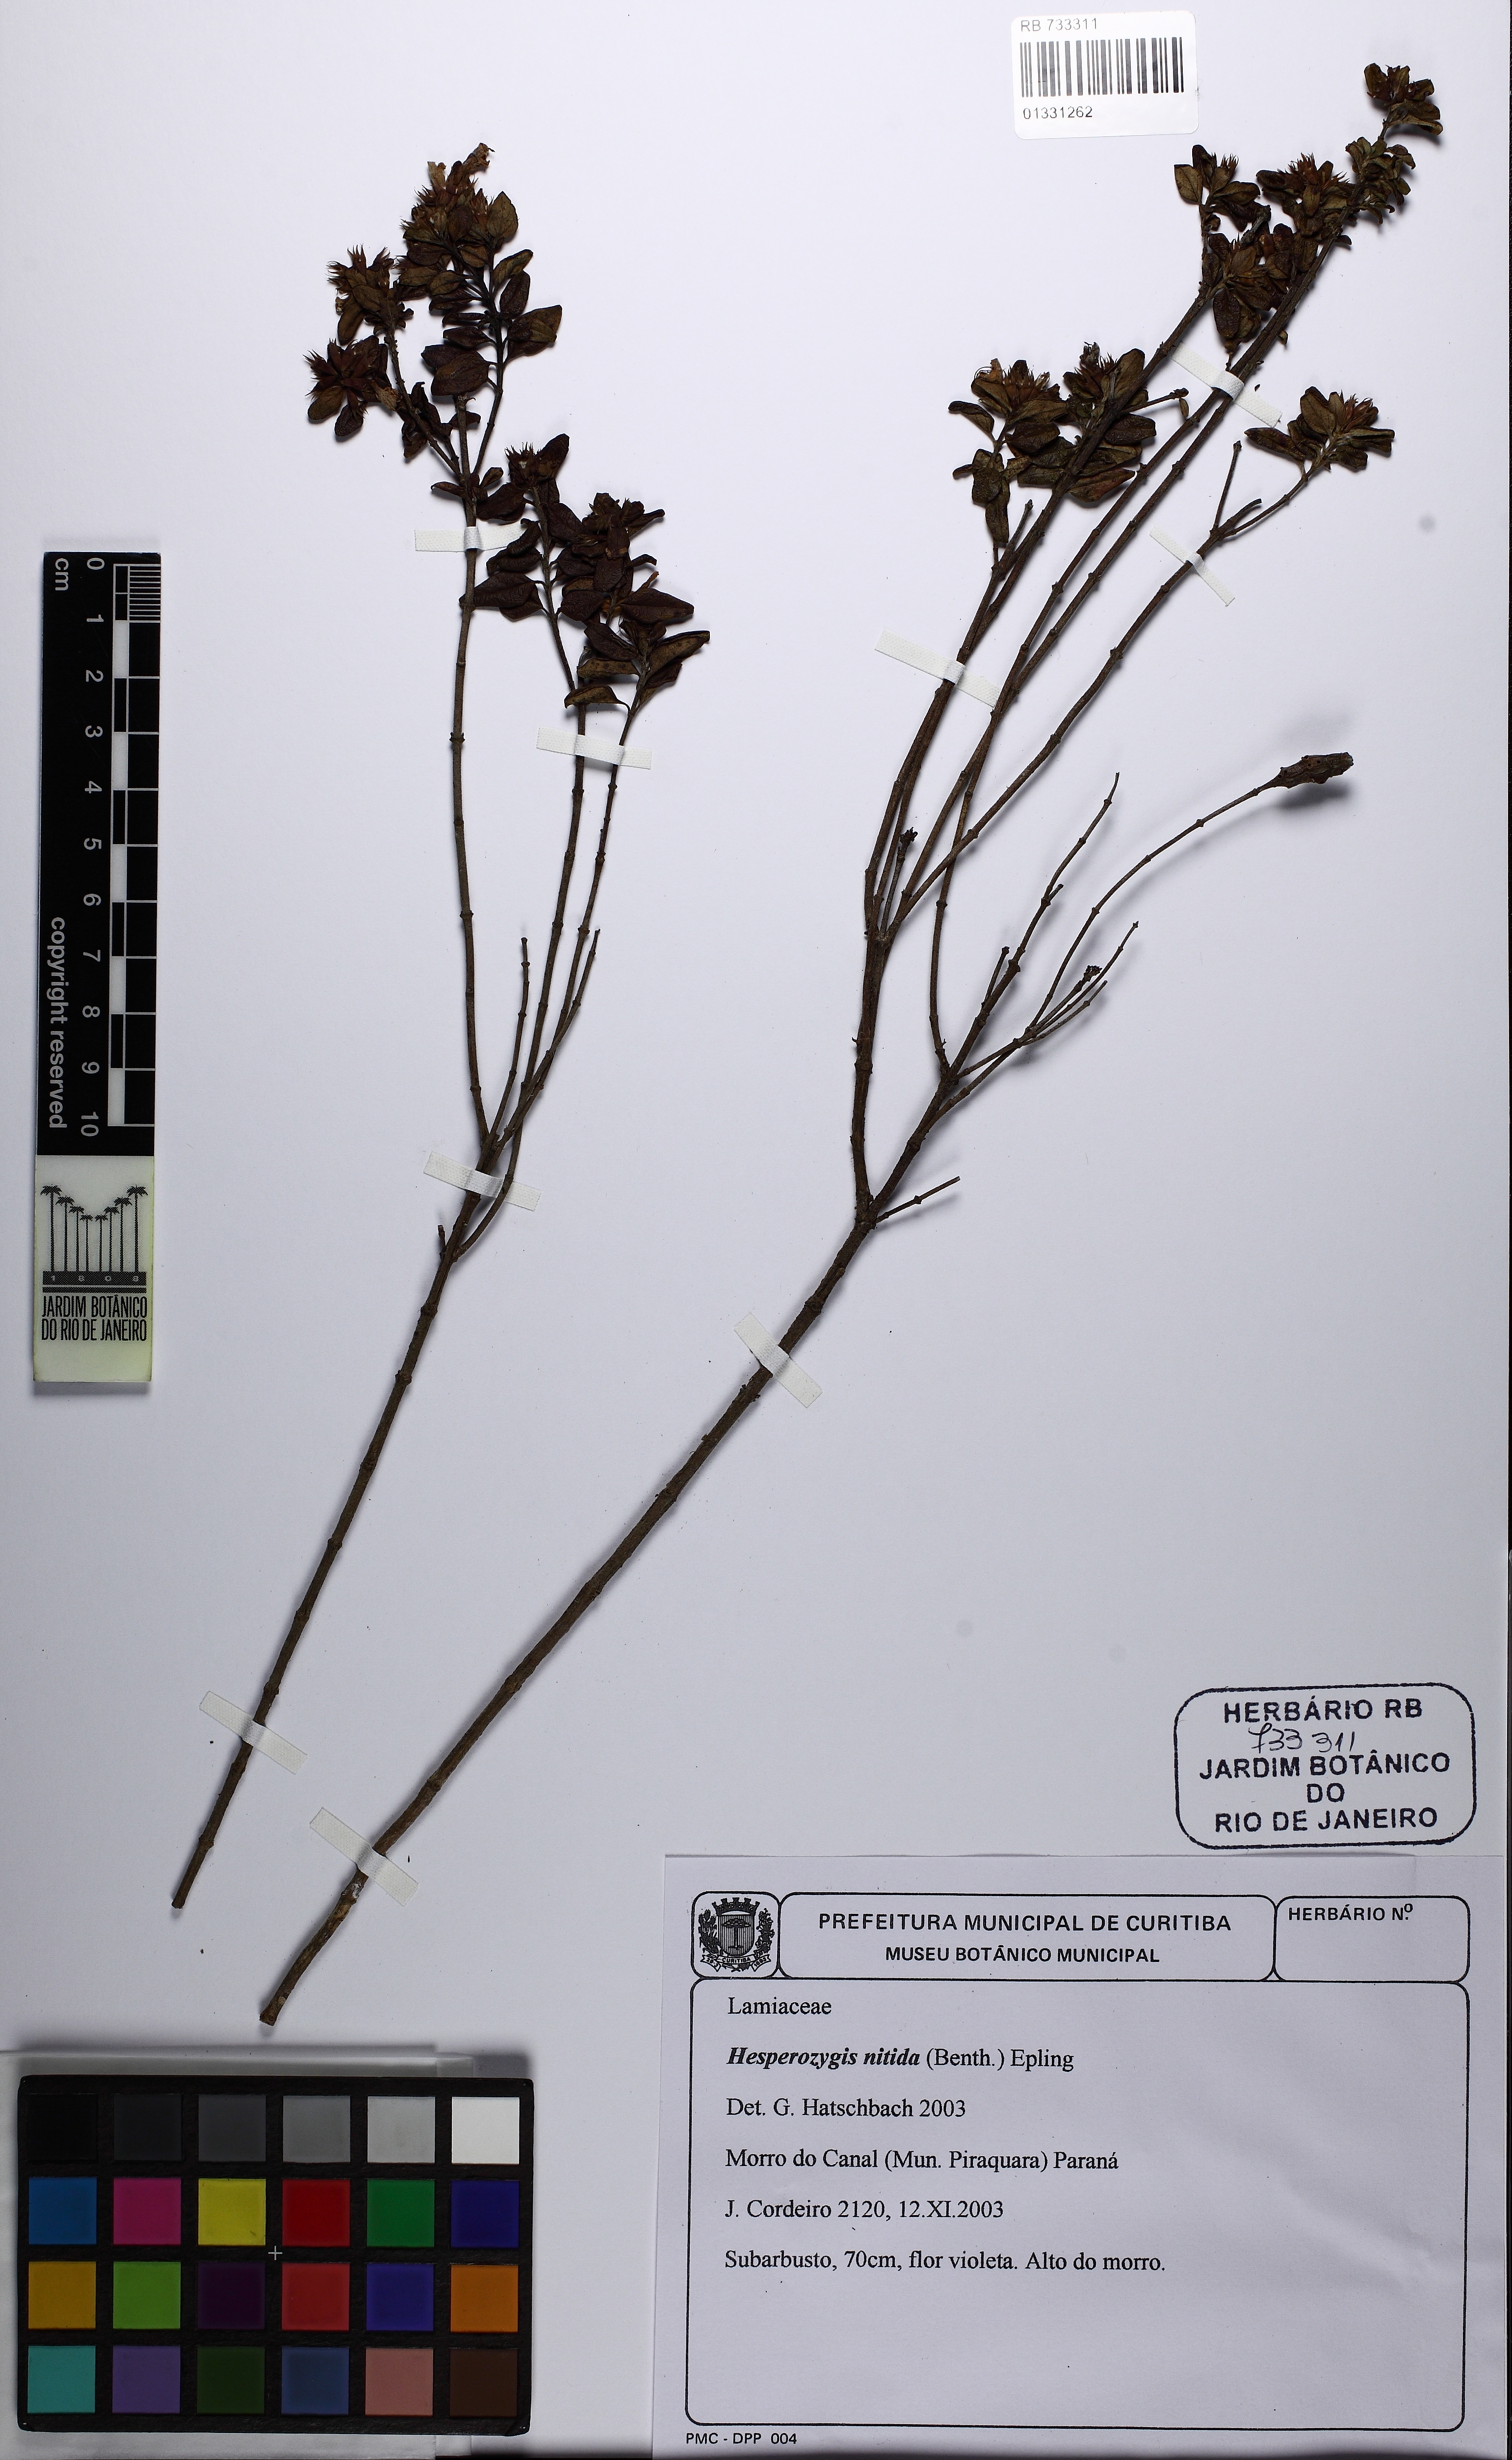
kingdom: Plantae
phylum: Tracheophyta
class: Magnoliopsida
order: Lamiales
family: Lamiaceae
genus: Hesperozygis
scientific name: Hesperozygis nitida
